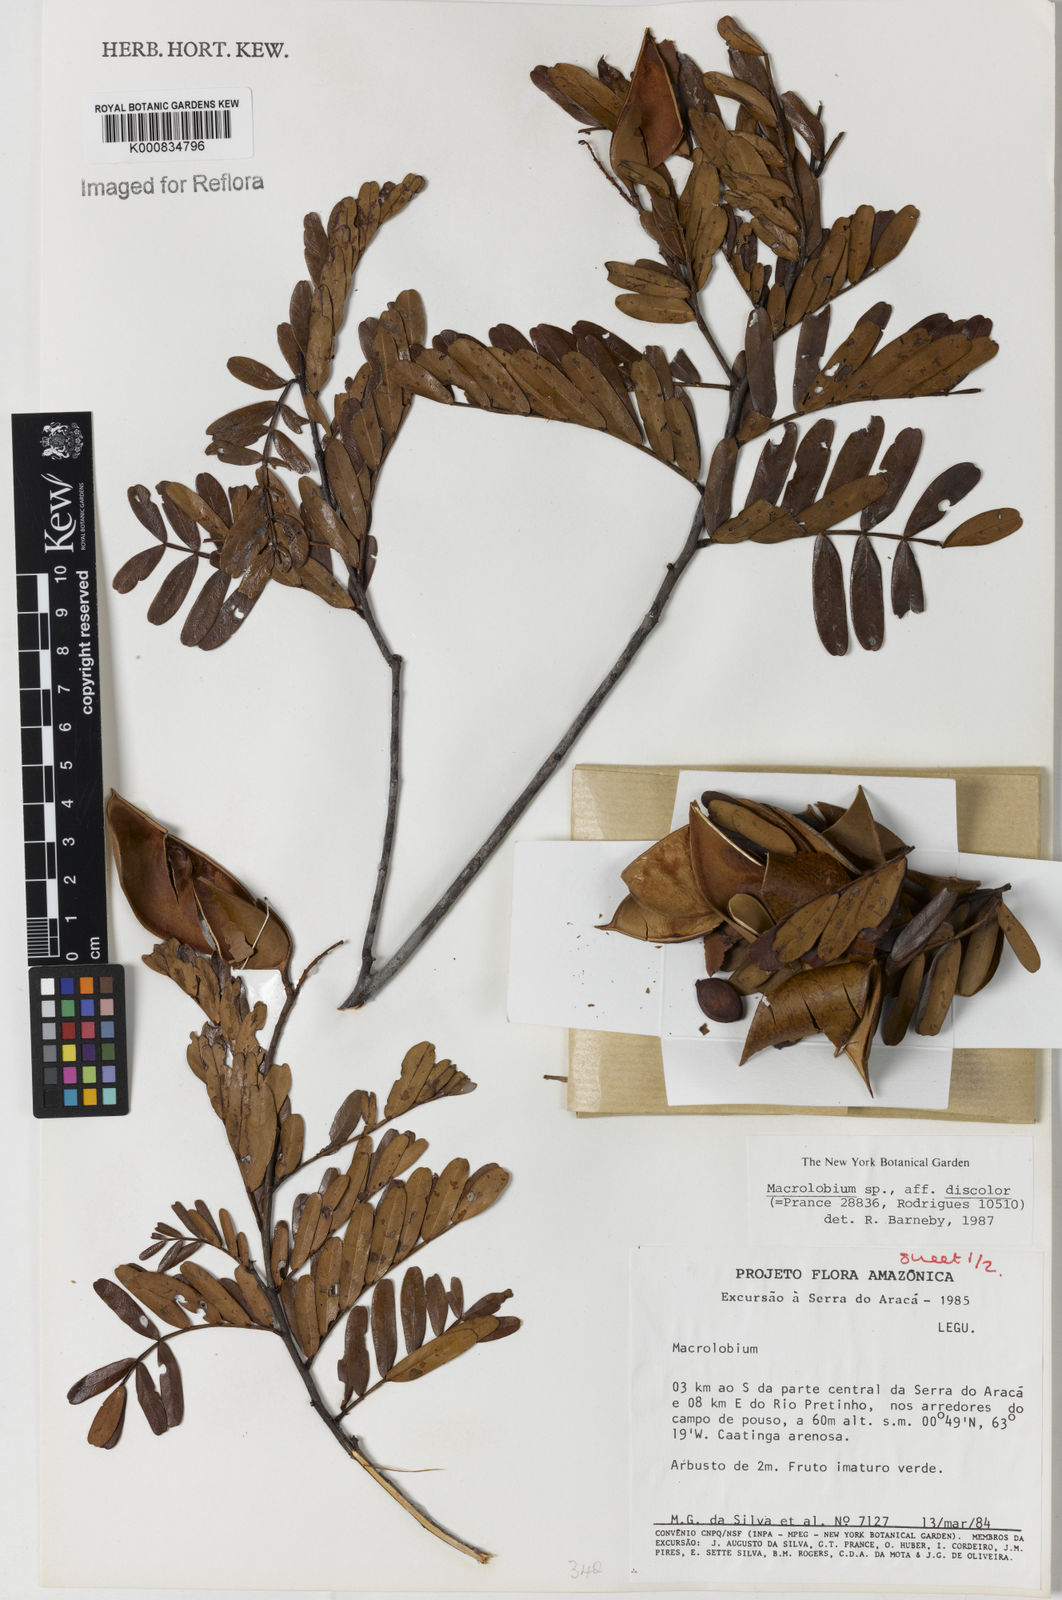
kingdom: Plantae
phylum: Tracheophyta
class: Magnoliopsida
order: Fabales
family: Fabaceae
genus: Macrolobium
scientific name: Macrolobium discolor
